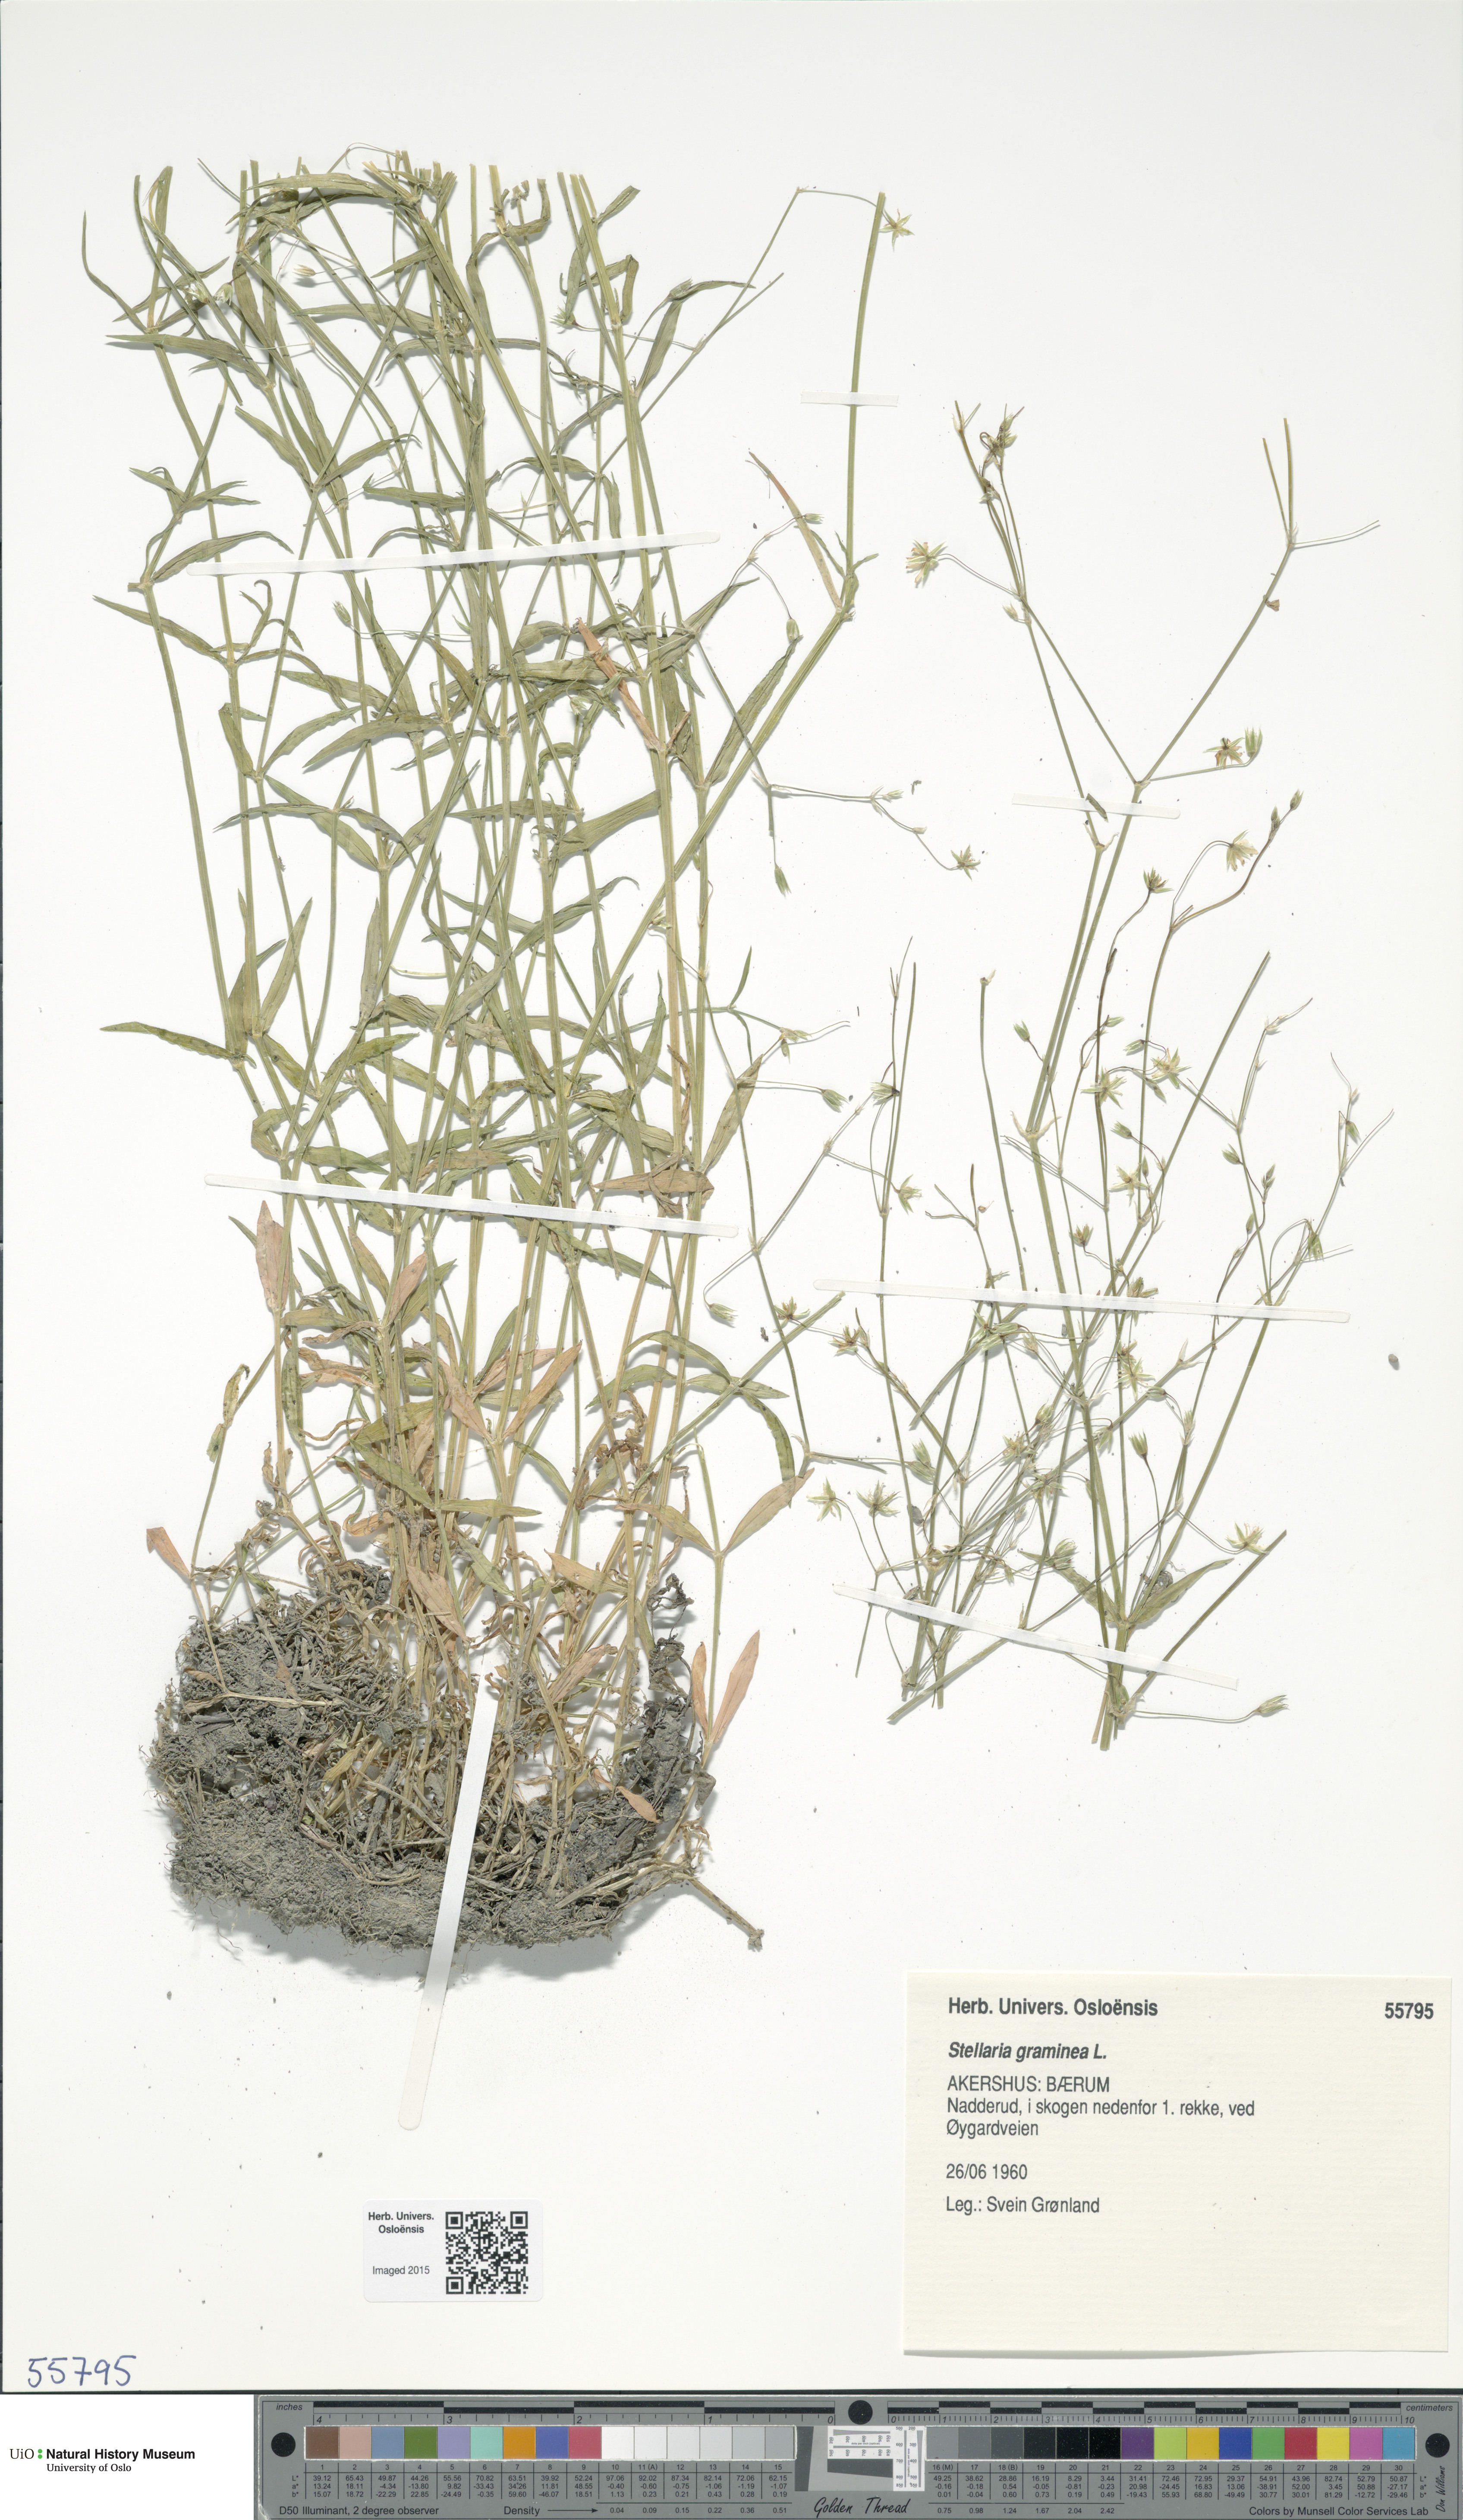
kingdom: Plantae
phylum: Tracheophyta
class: Magnoliopsida
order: Caryophyllales
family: Caryophyllaceae
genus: Stellaria
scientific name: Stellaria graminea
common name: Grass-like starwort
